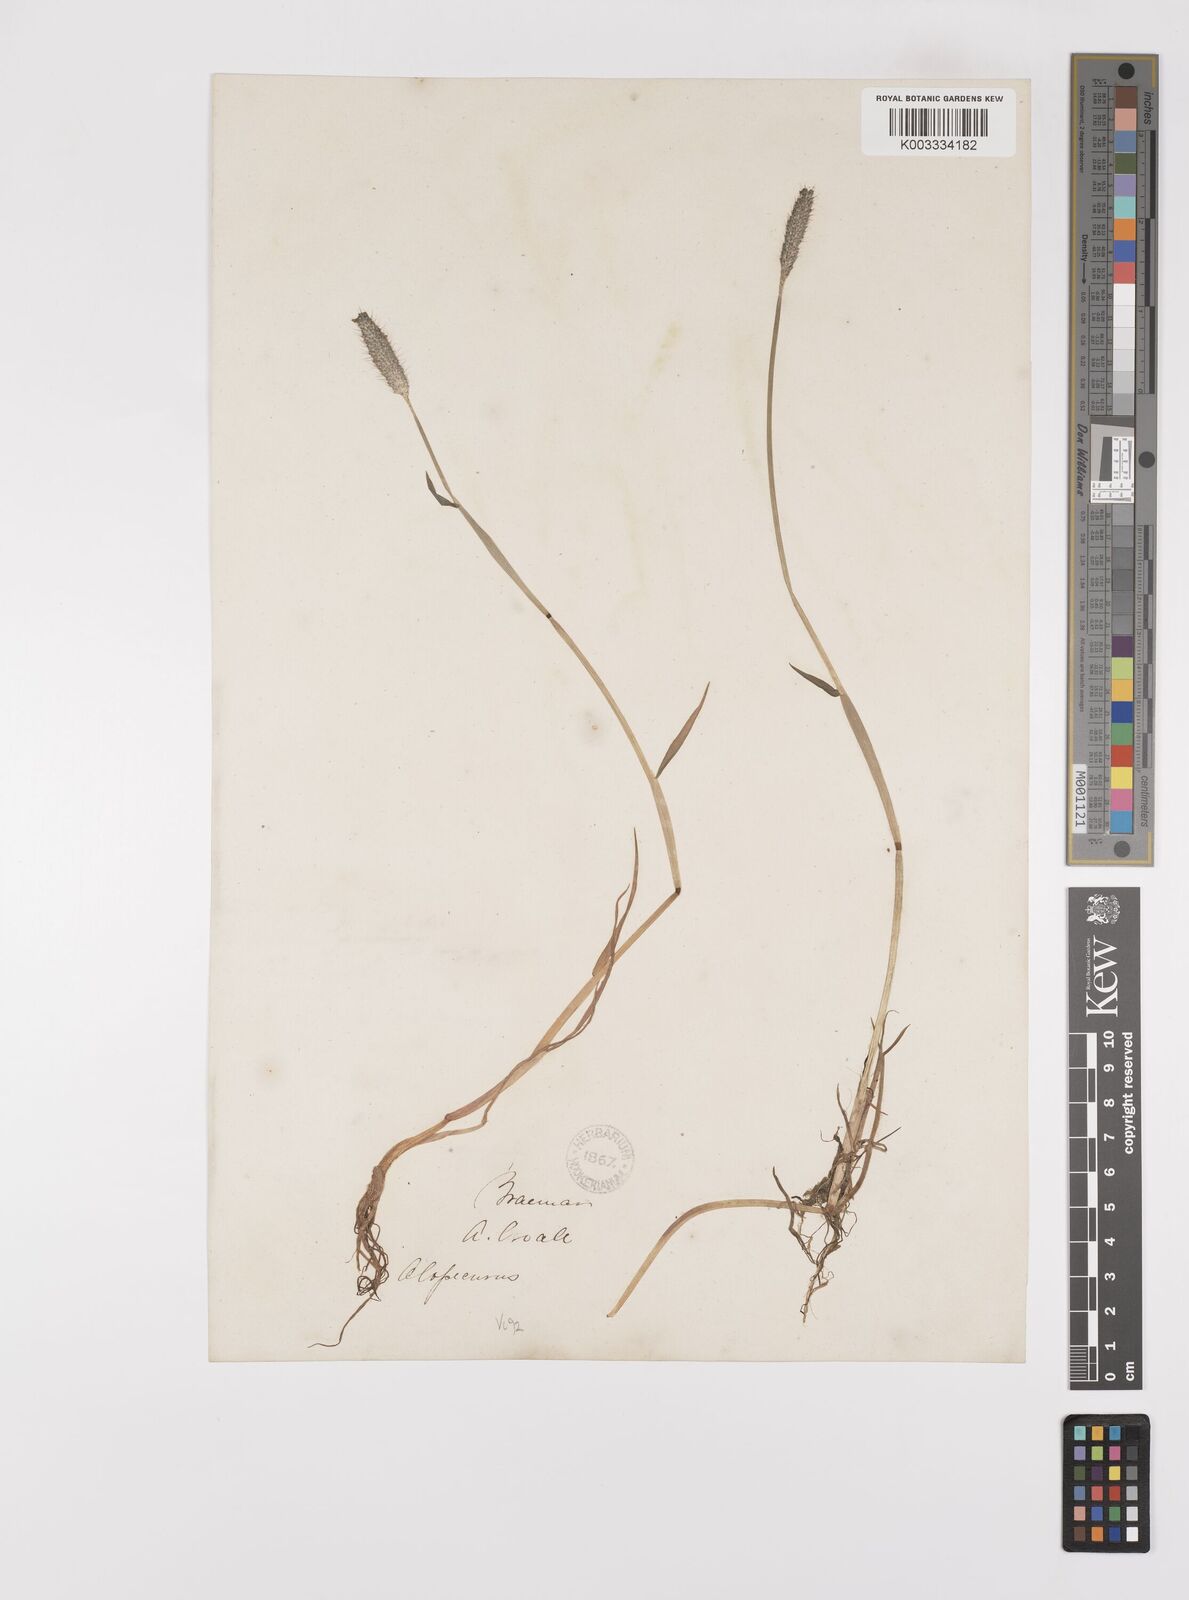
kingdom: Plantae
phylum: Tracheophyta
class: Liliopsida
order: Poales
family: Poaceae
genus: Alopecurus
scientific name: Alopecurus geniculatus
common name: Water foxtail
